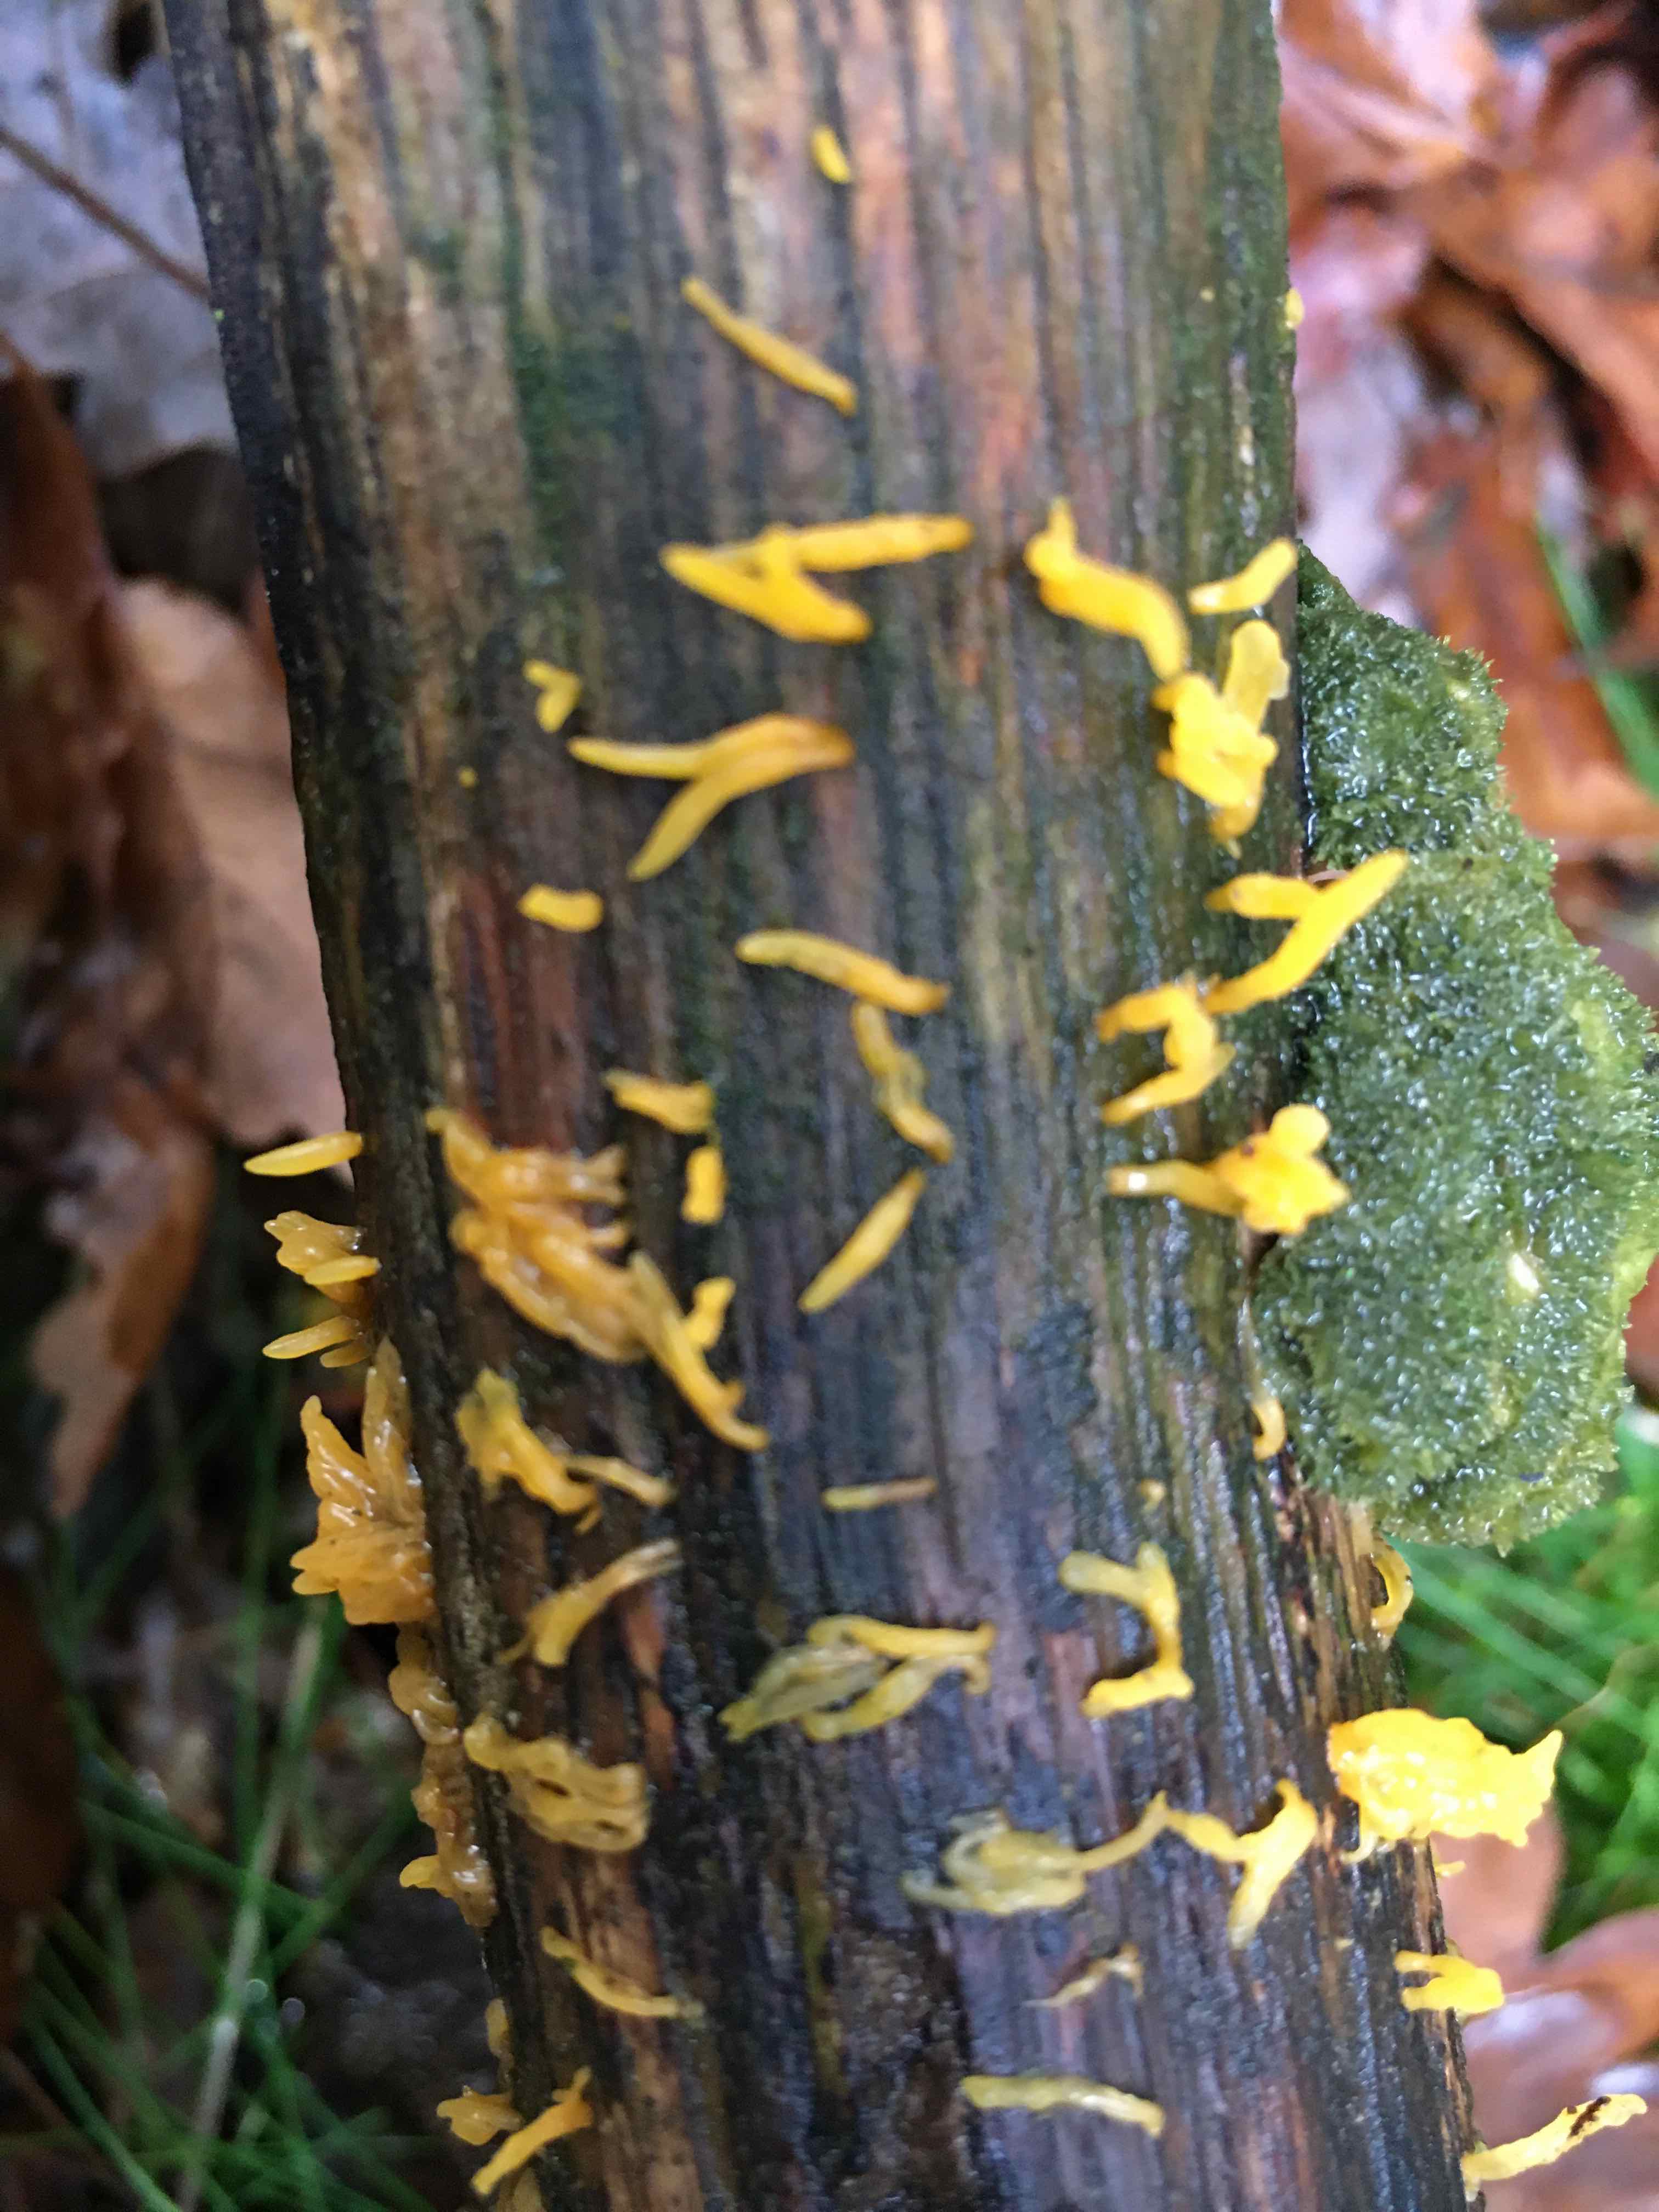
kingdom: Fungi
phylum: Basidiomycota
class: Dacrymycetes
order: Dacrymycetales
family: Dacrymycetaceae
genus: Calocera
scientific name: Calocera cornea
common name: liden guldgaffel
